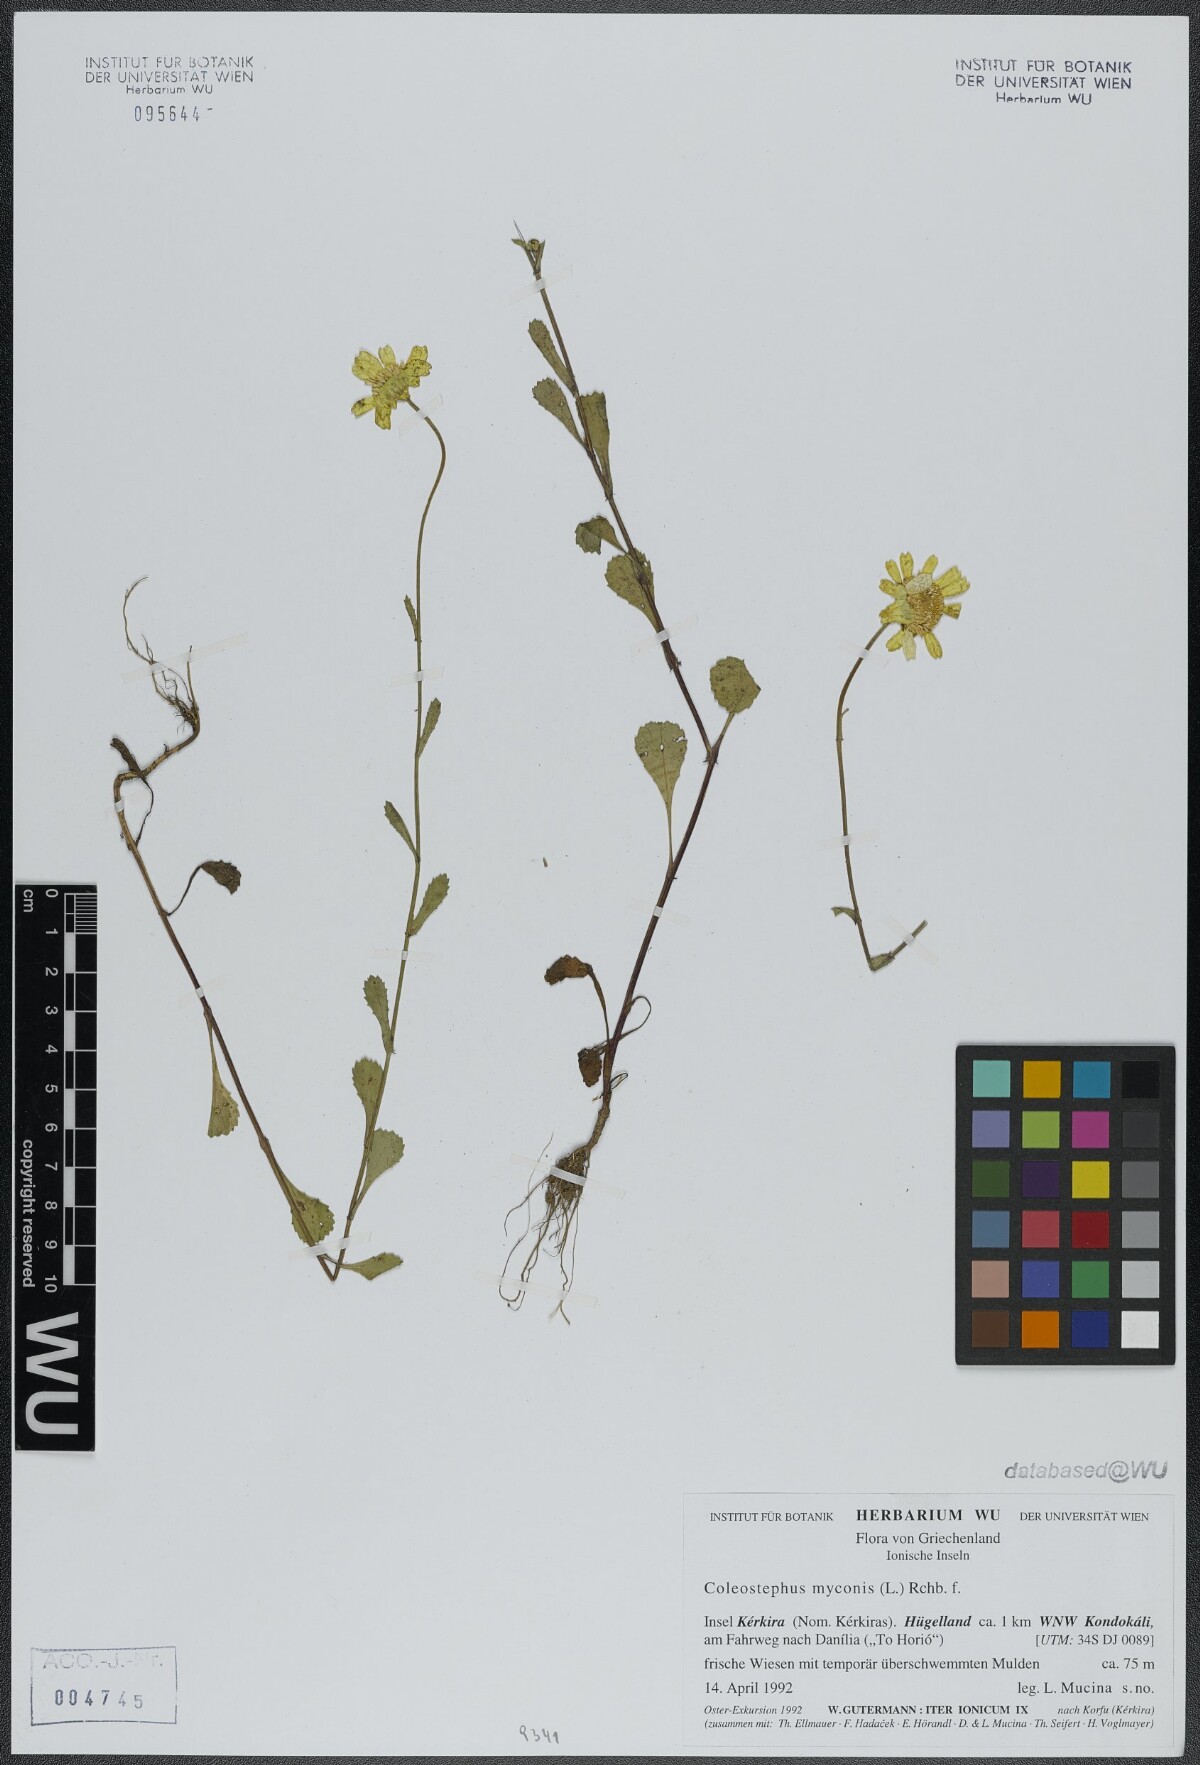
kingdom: Plantae
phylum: Tracheophyta
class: Magnoliopsida
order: Asterales
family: Asteraceae
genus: Coleostephus
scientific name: Coleostephus myconis
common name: Mediterranean marigold
